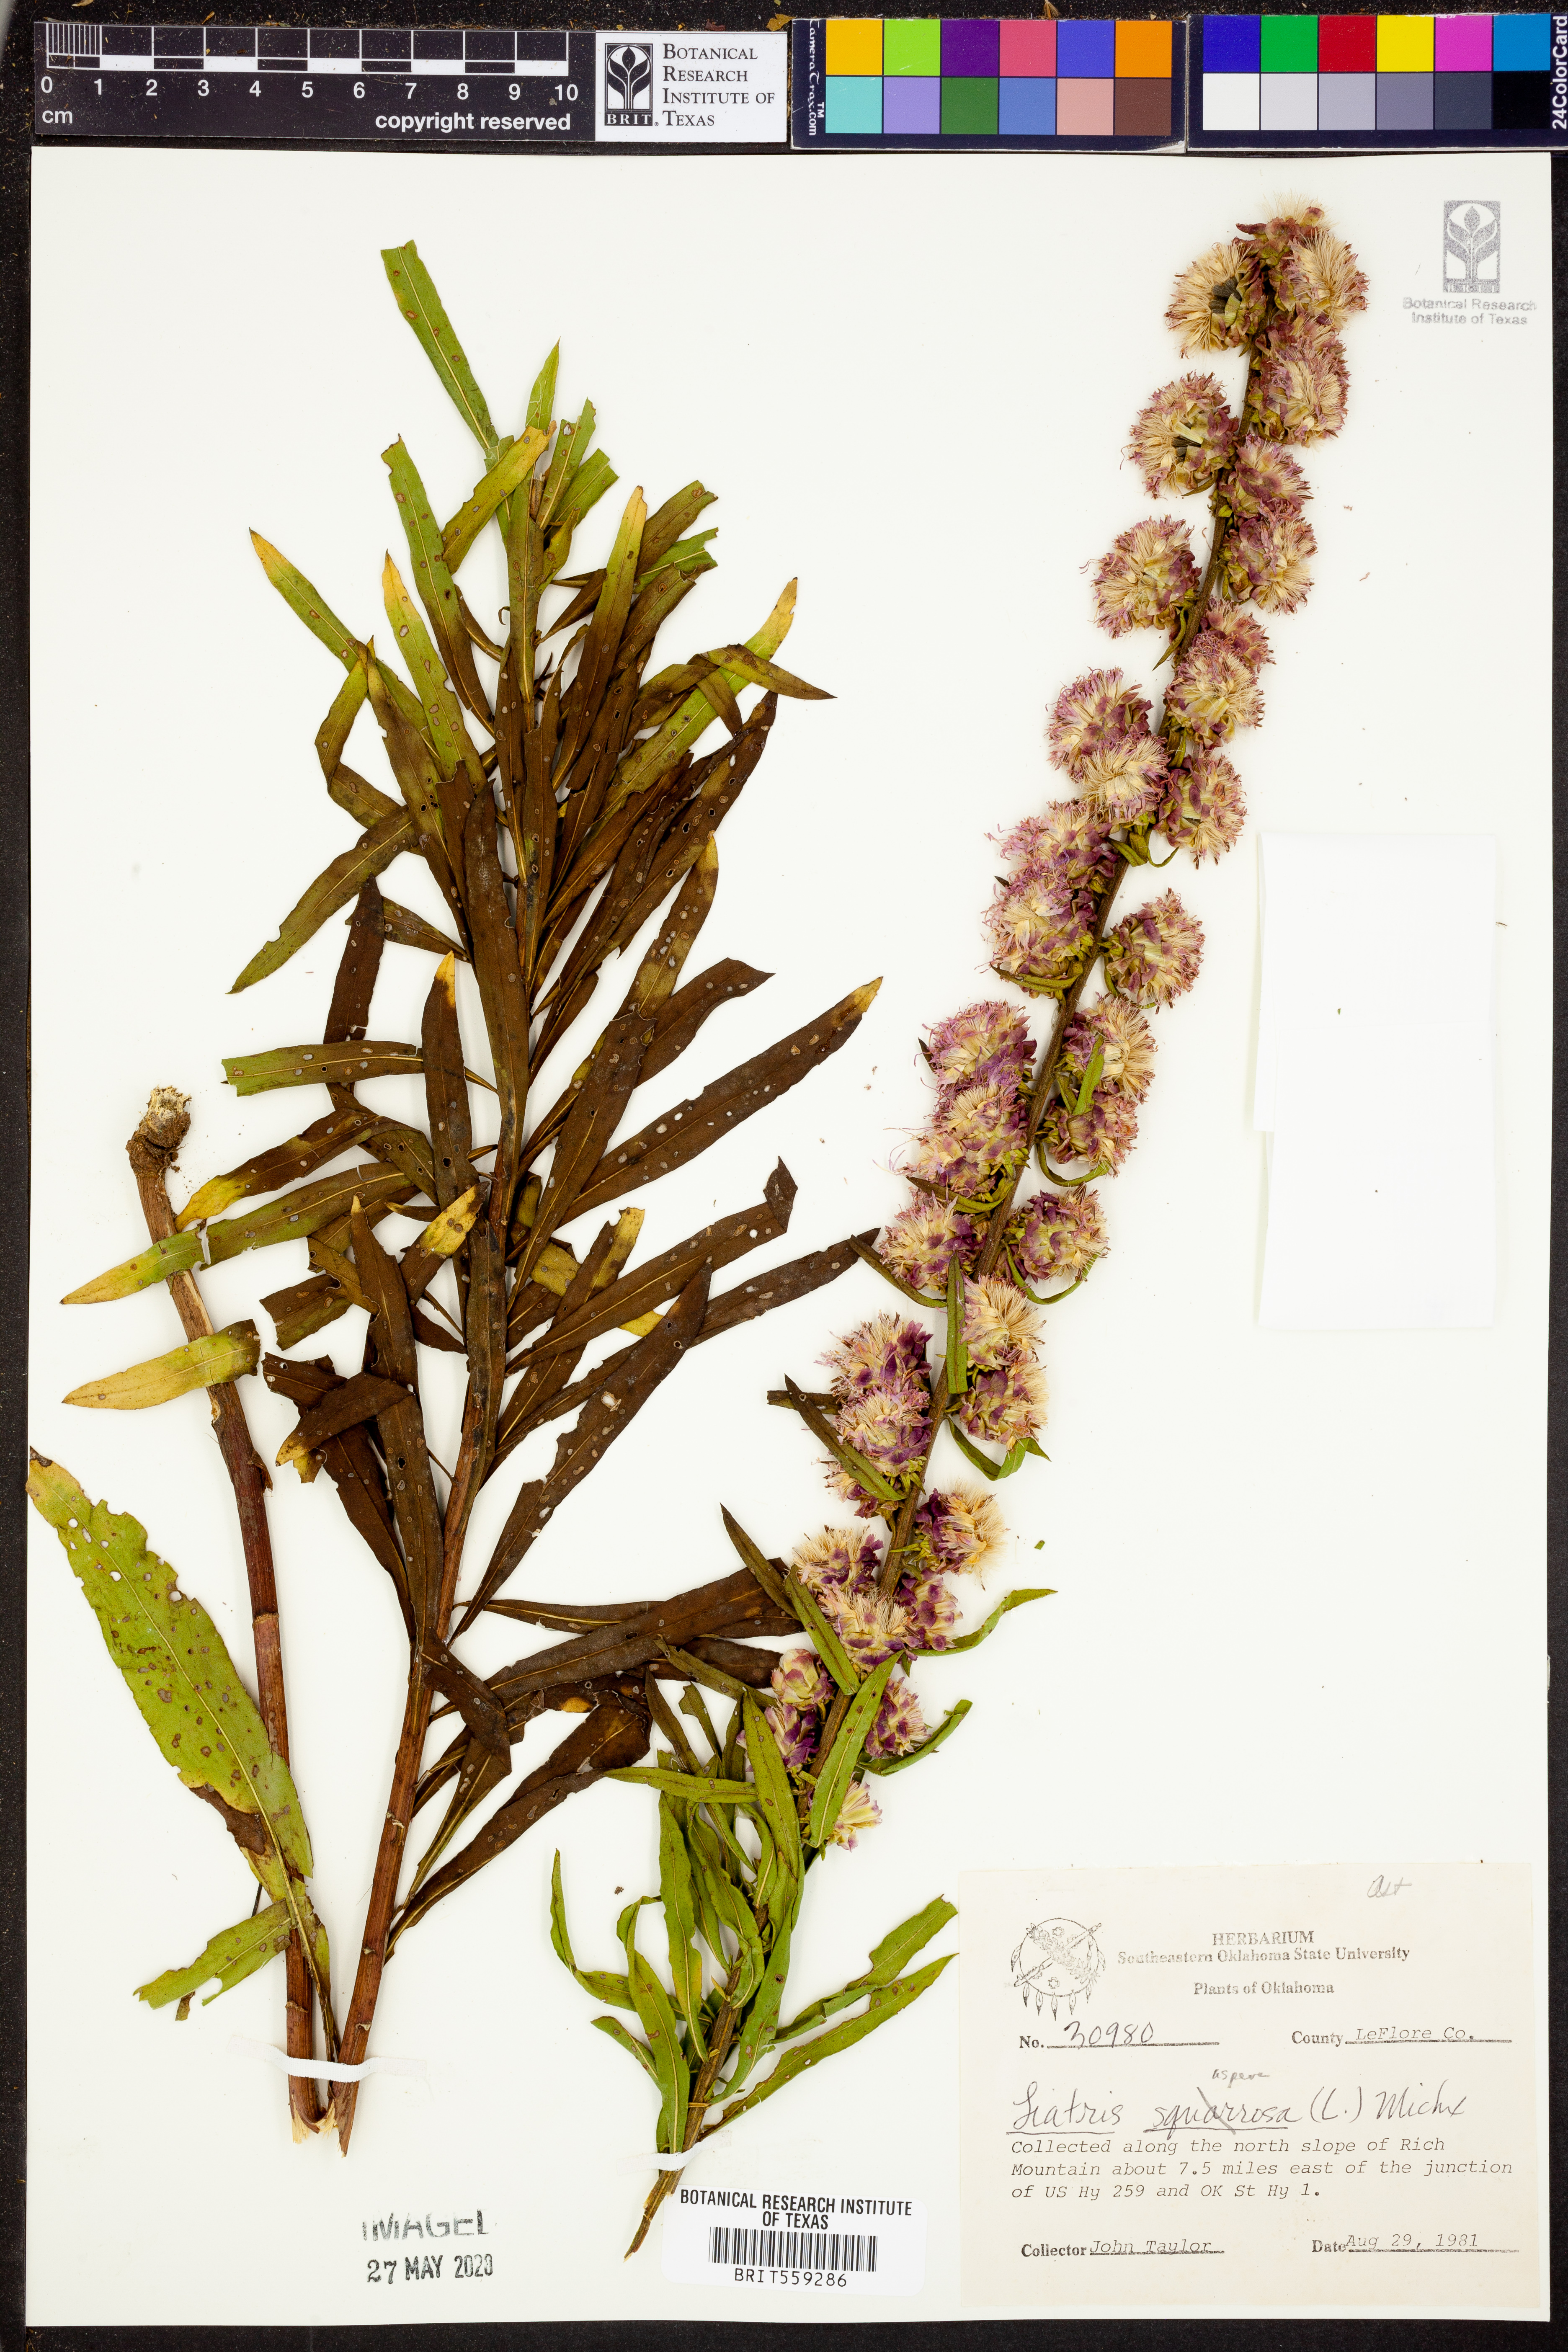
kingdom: Plantae
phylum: Tracheophyta
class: Magnoliopsida
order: Asterales
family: Asteraceae
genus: Liatris
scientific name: Liatris aspera
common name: Lacerate blazing-star
